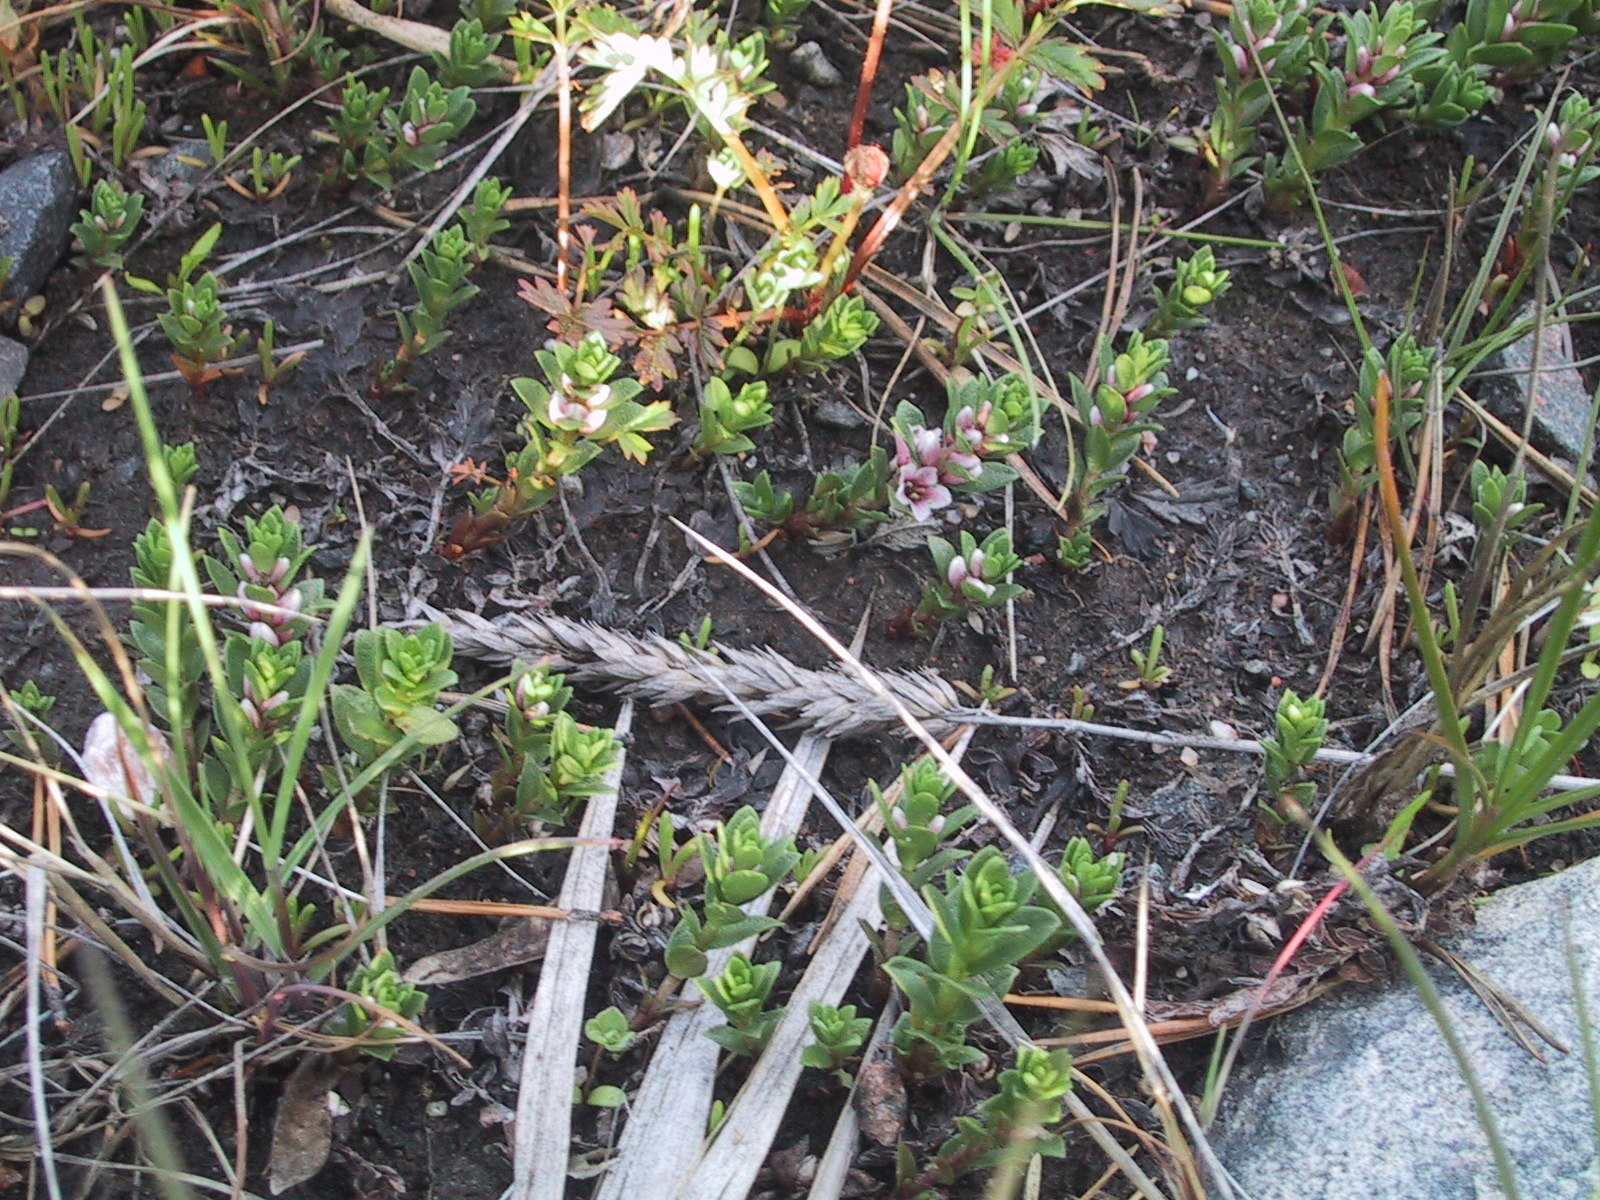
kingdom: Plantae
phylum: Tracheophyta
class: Magnoliopsida
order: Ericales
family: Primulaceae
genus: Lysimachia
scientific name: Lysimachia maritima
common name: Sea milkwort
